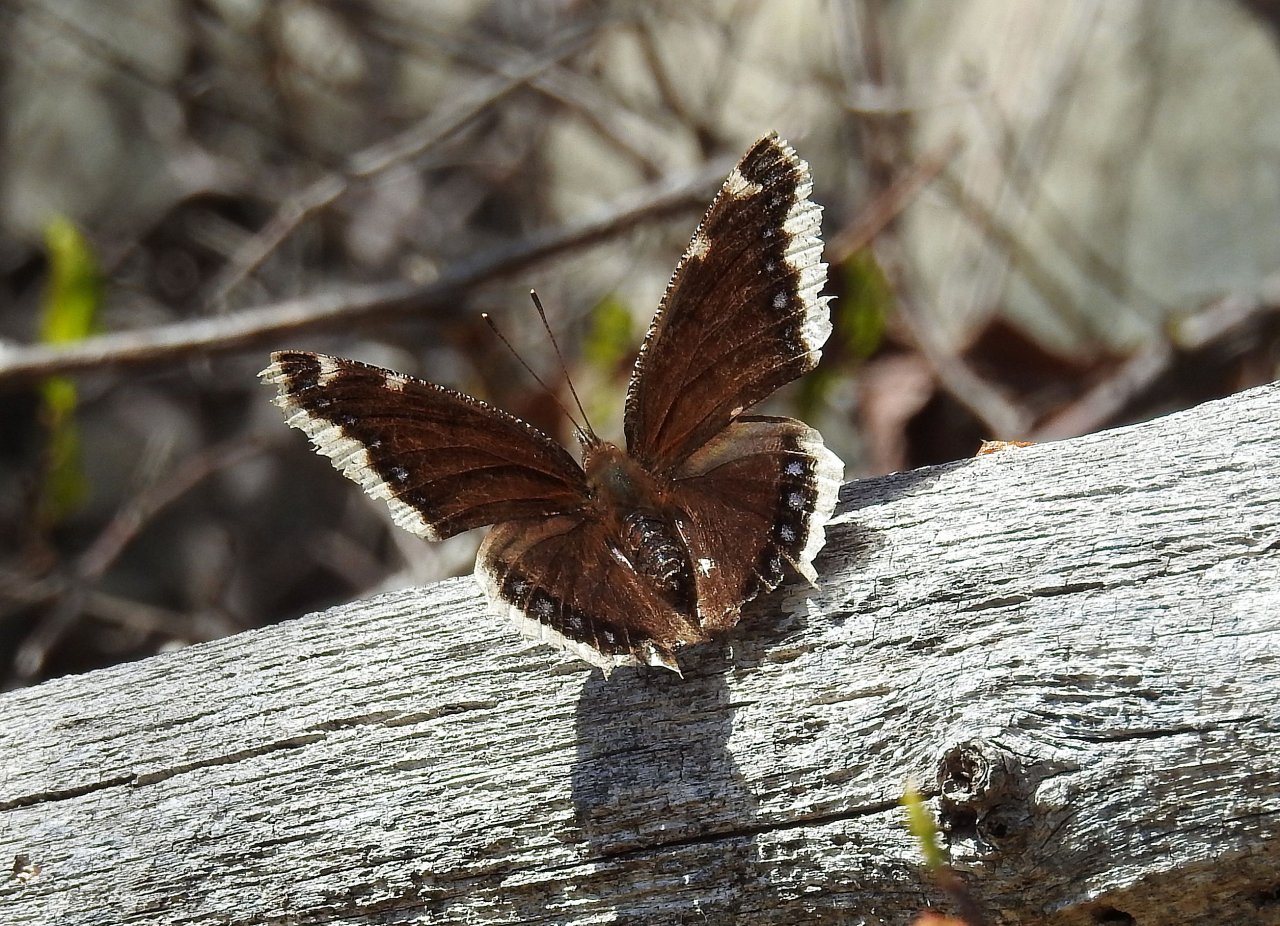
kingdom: Animalia
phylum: Arthropoda
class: Insecta
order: Lepidoptera
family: Nymphalidae
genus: Nymphalis
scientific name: Nymphalis antiopa
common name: Mourning Cloak
